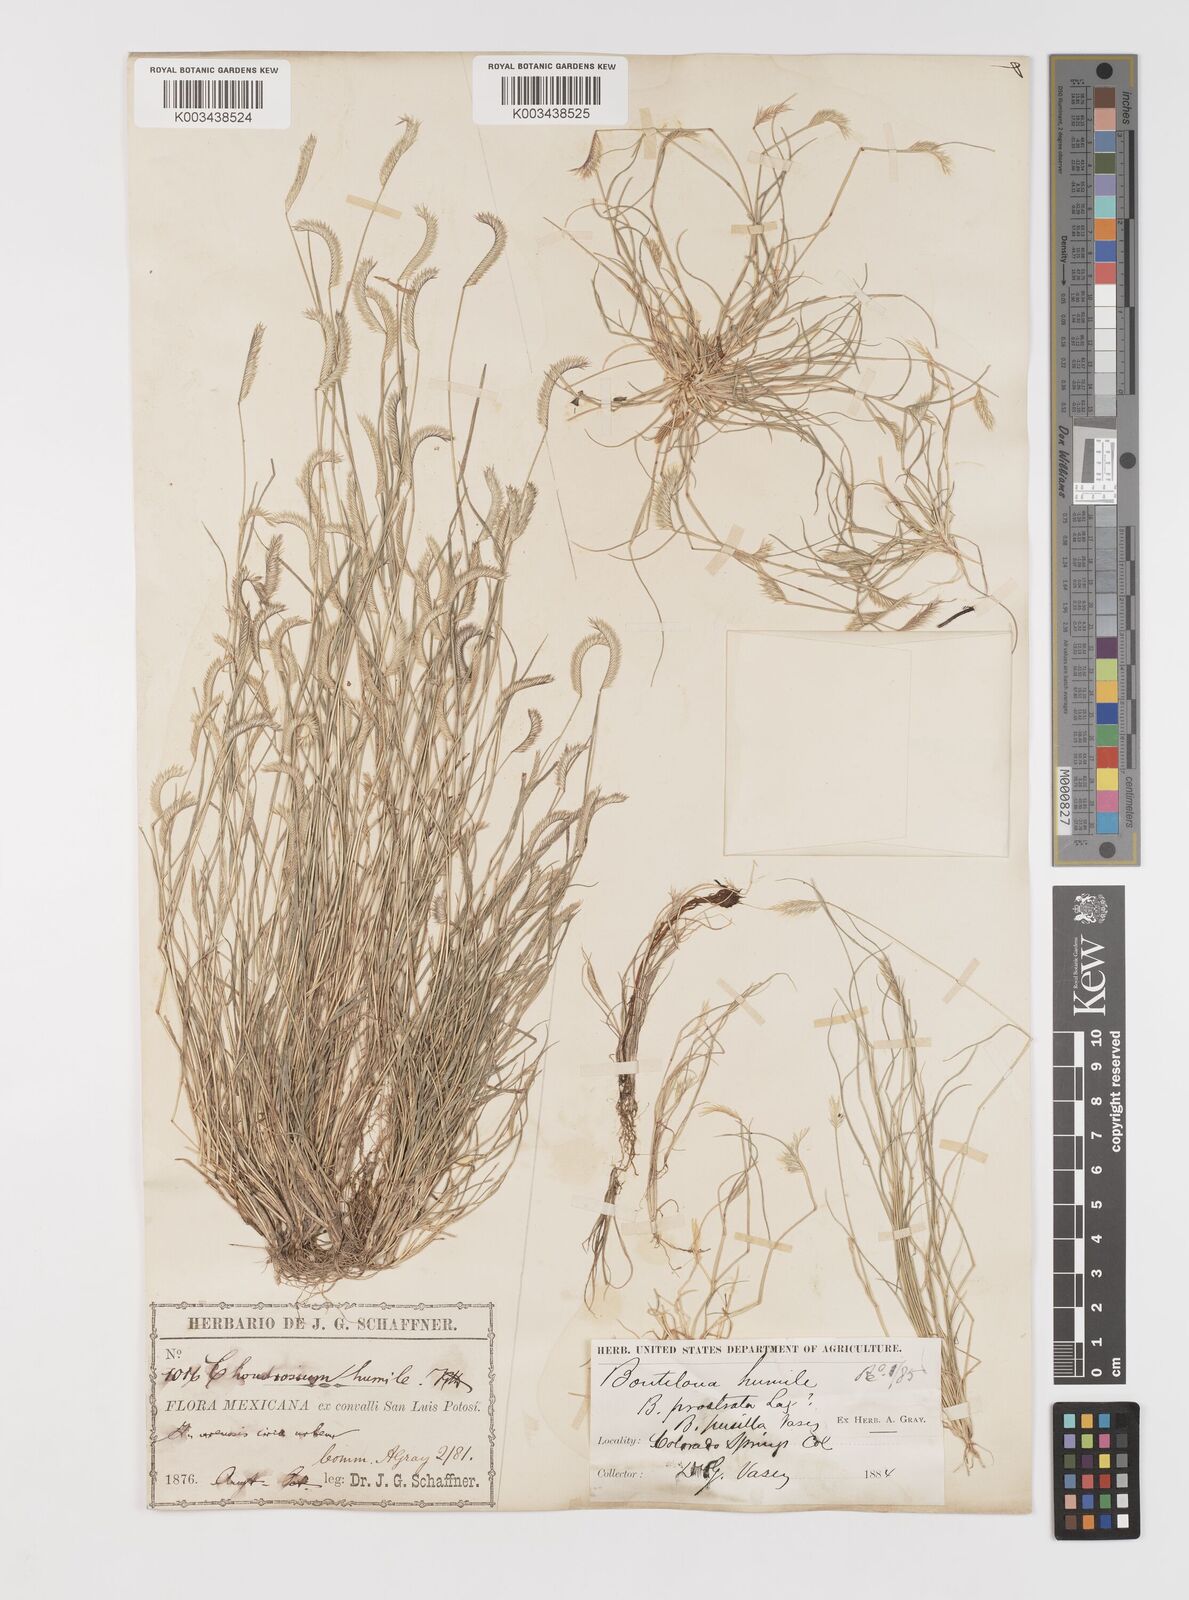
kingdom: Plantae
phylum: Tracheophyta
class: Liliopsida
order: Poales
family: Poaceae
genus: Bouteloua
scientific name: Bouteloua simplex
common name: Mat grama
